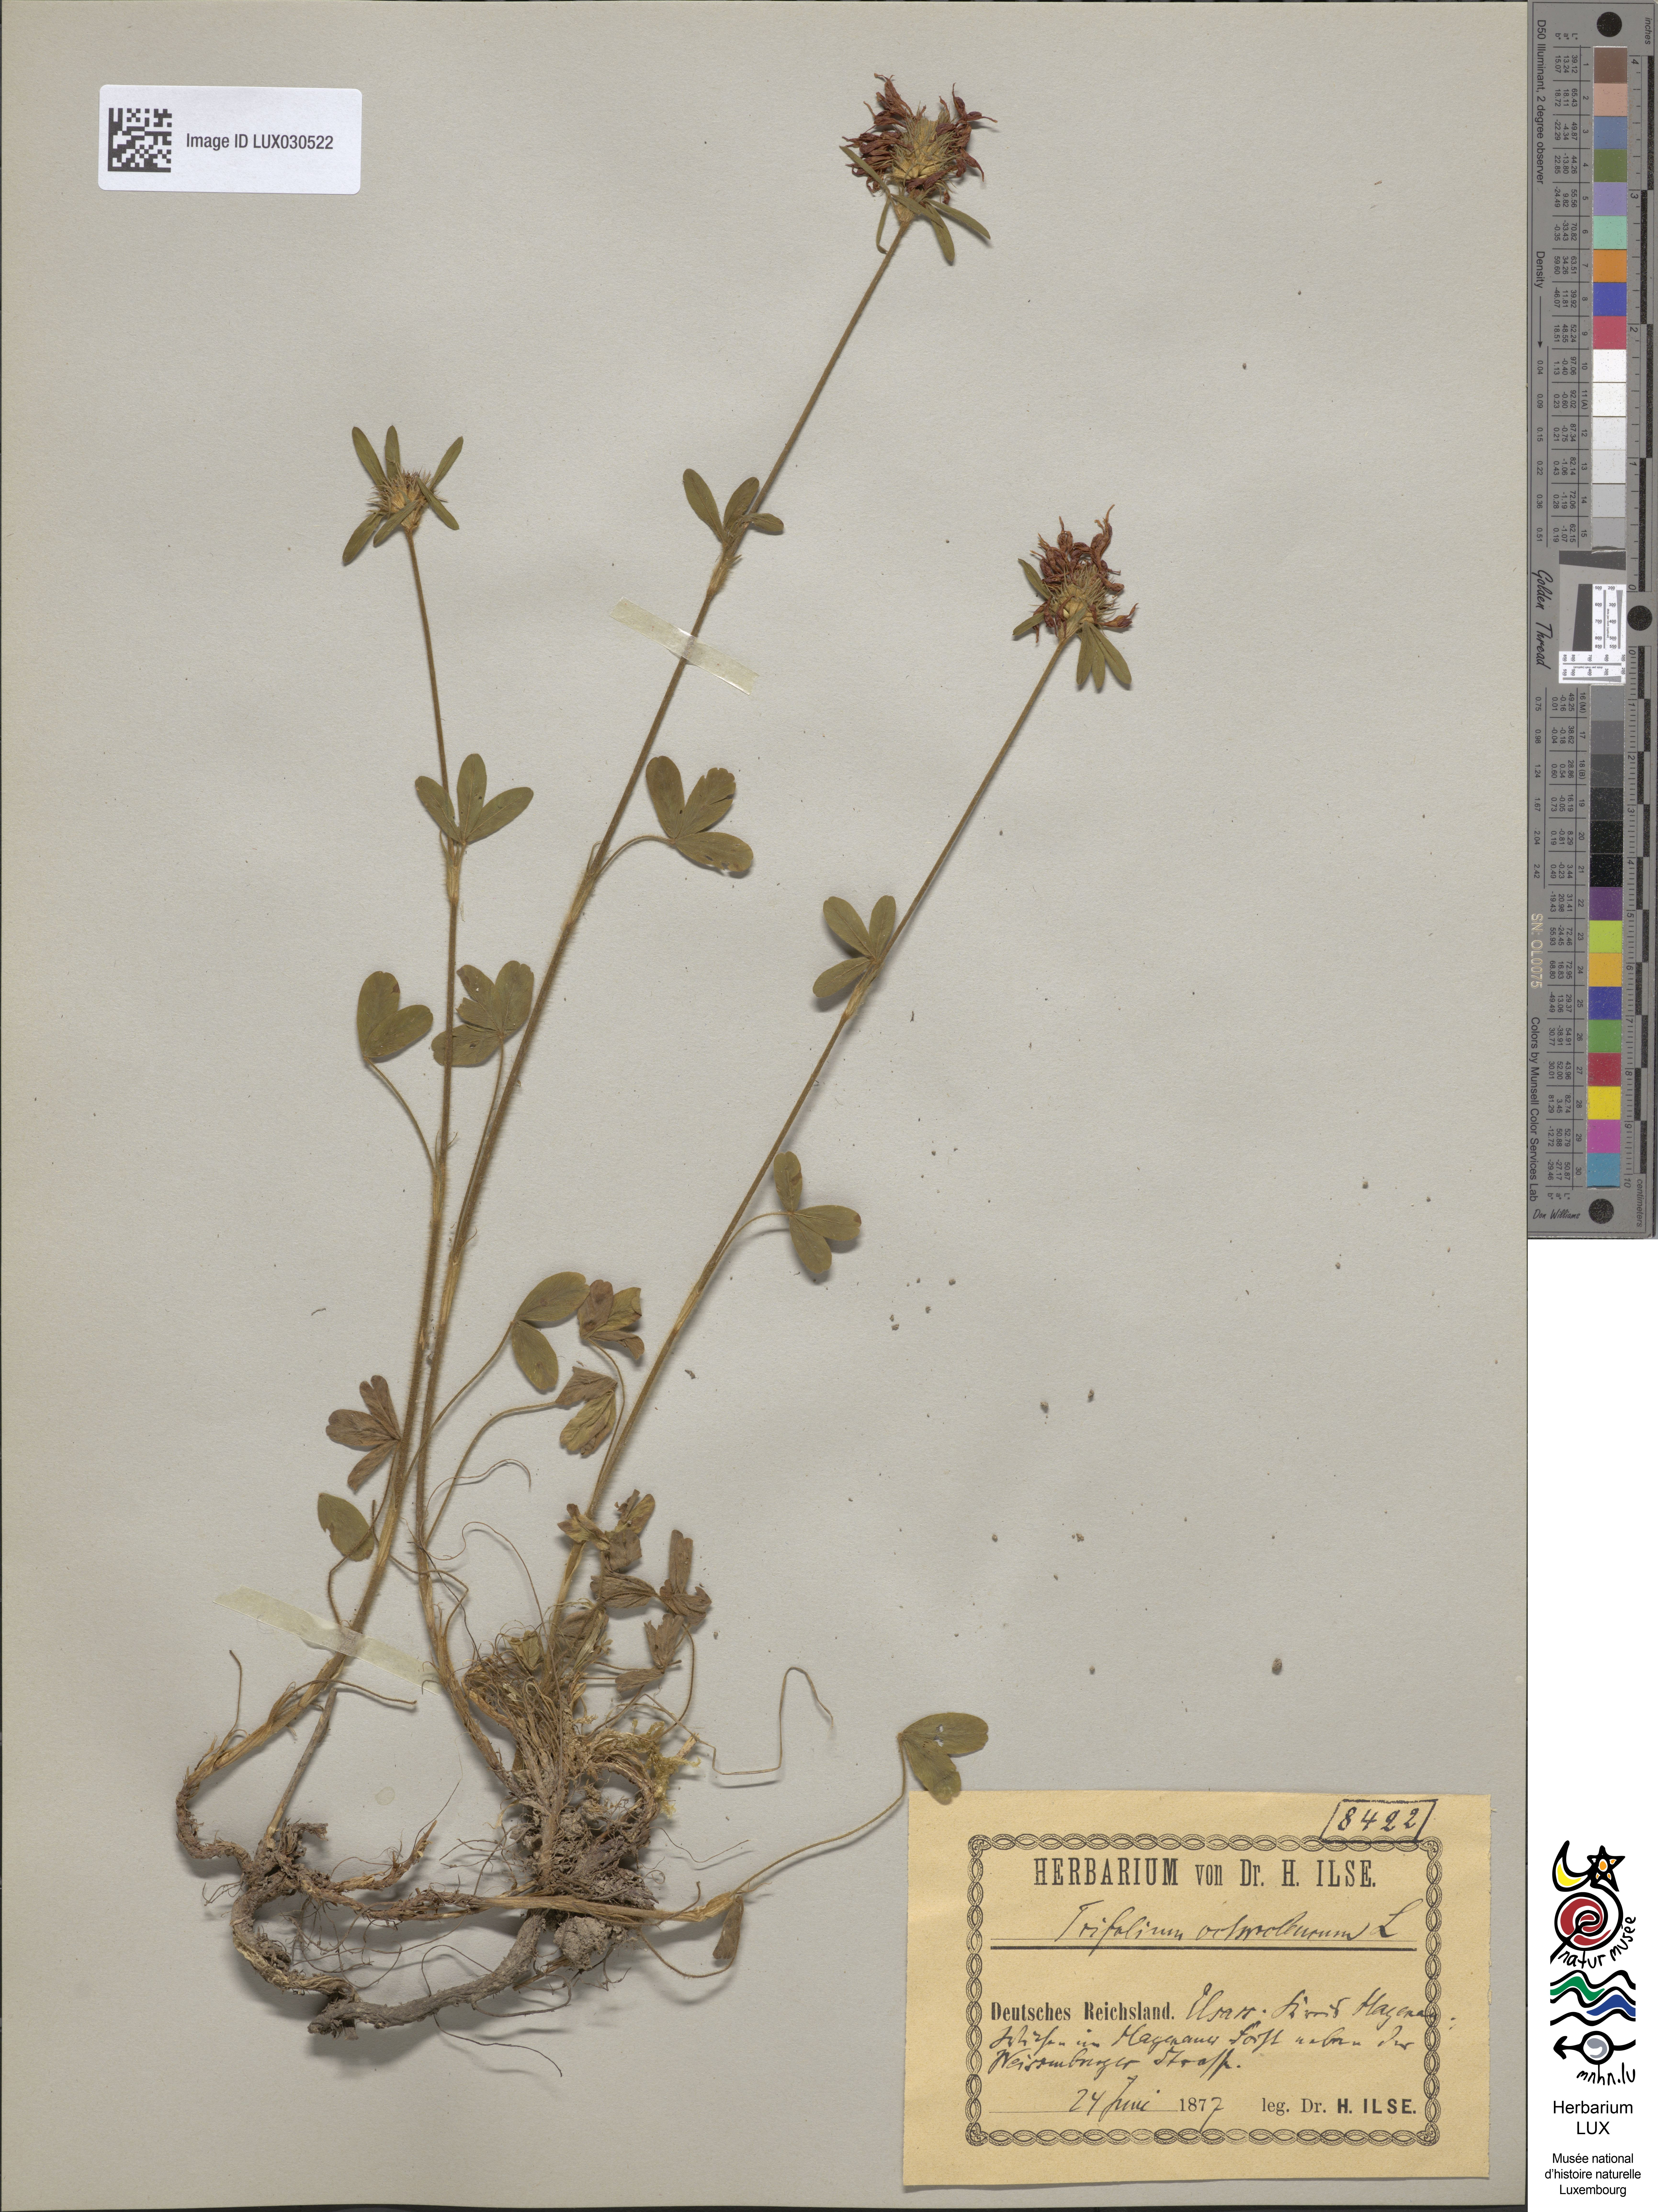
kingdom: Plantae
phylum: Tracheophyta
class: Magnoliopsida
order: Fabales
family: Fabaceae
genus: Trifolium
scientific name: Trifolium ochroleucon
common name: Sulphur clover
